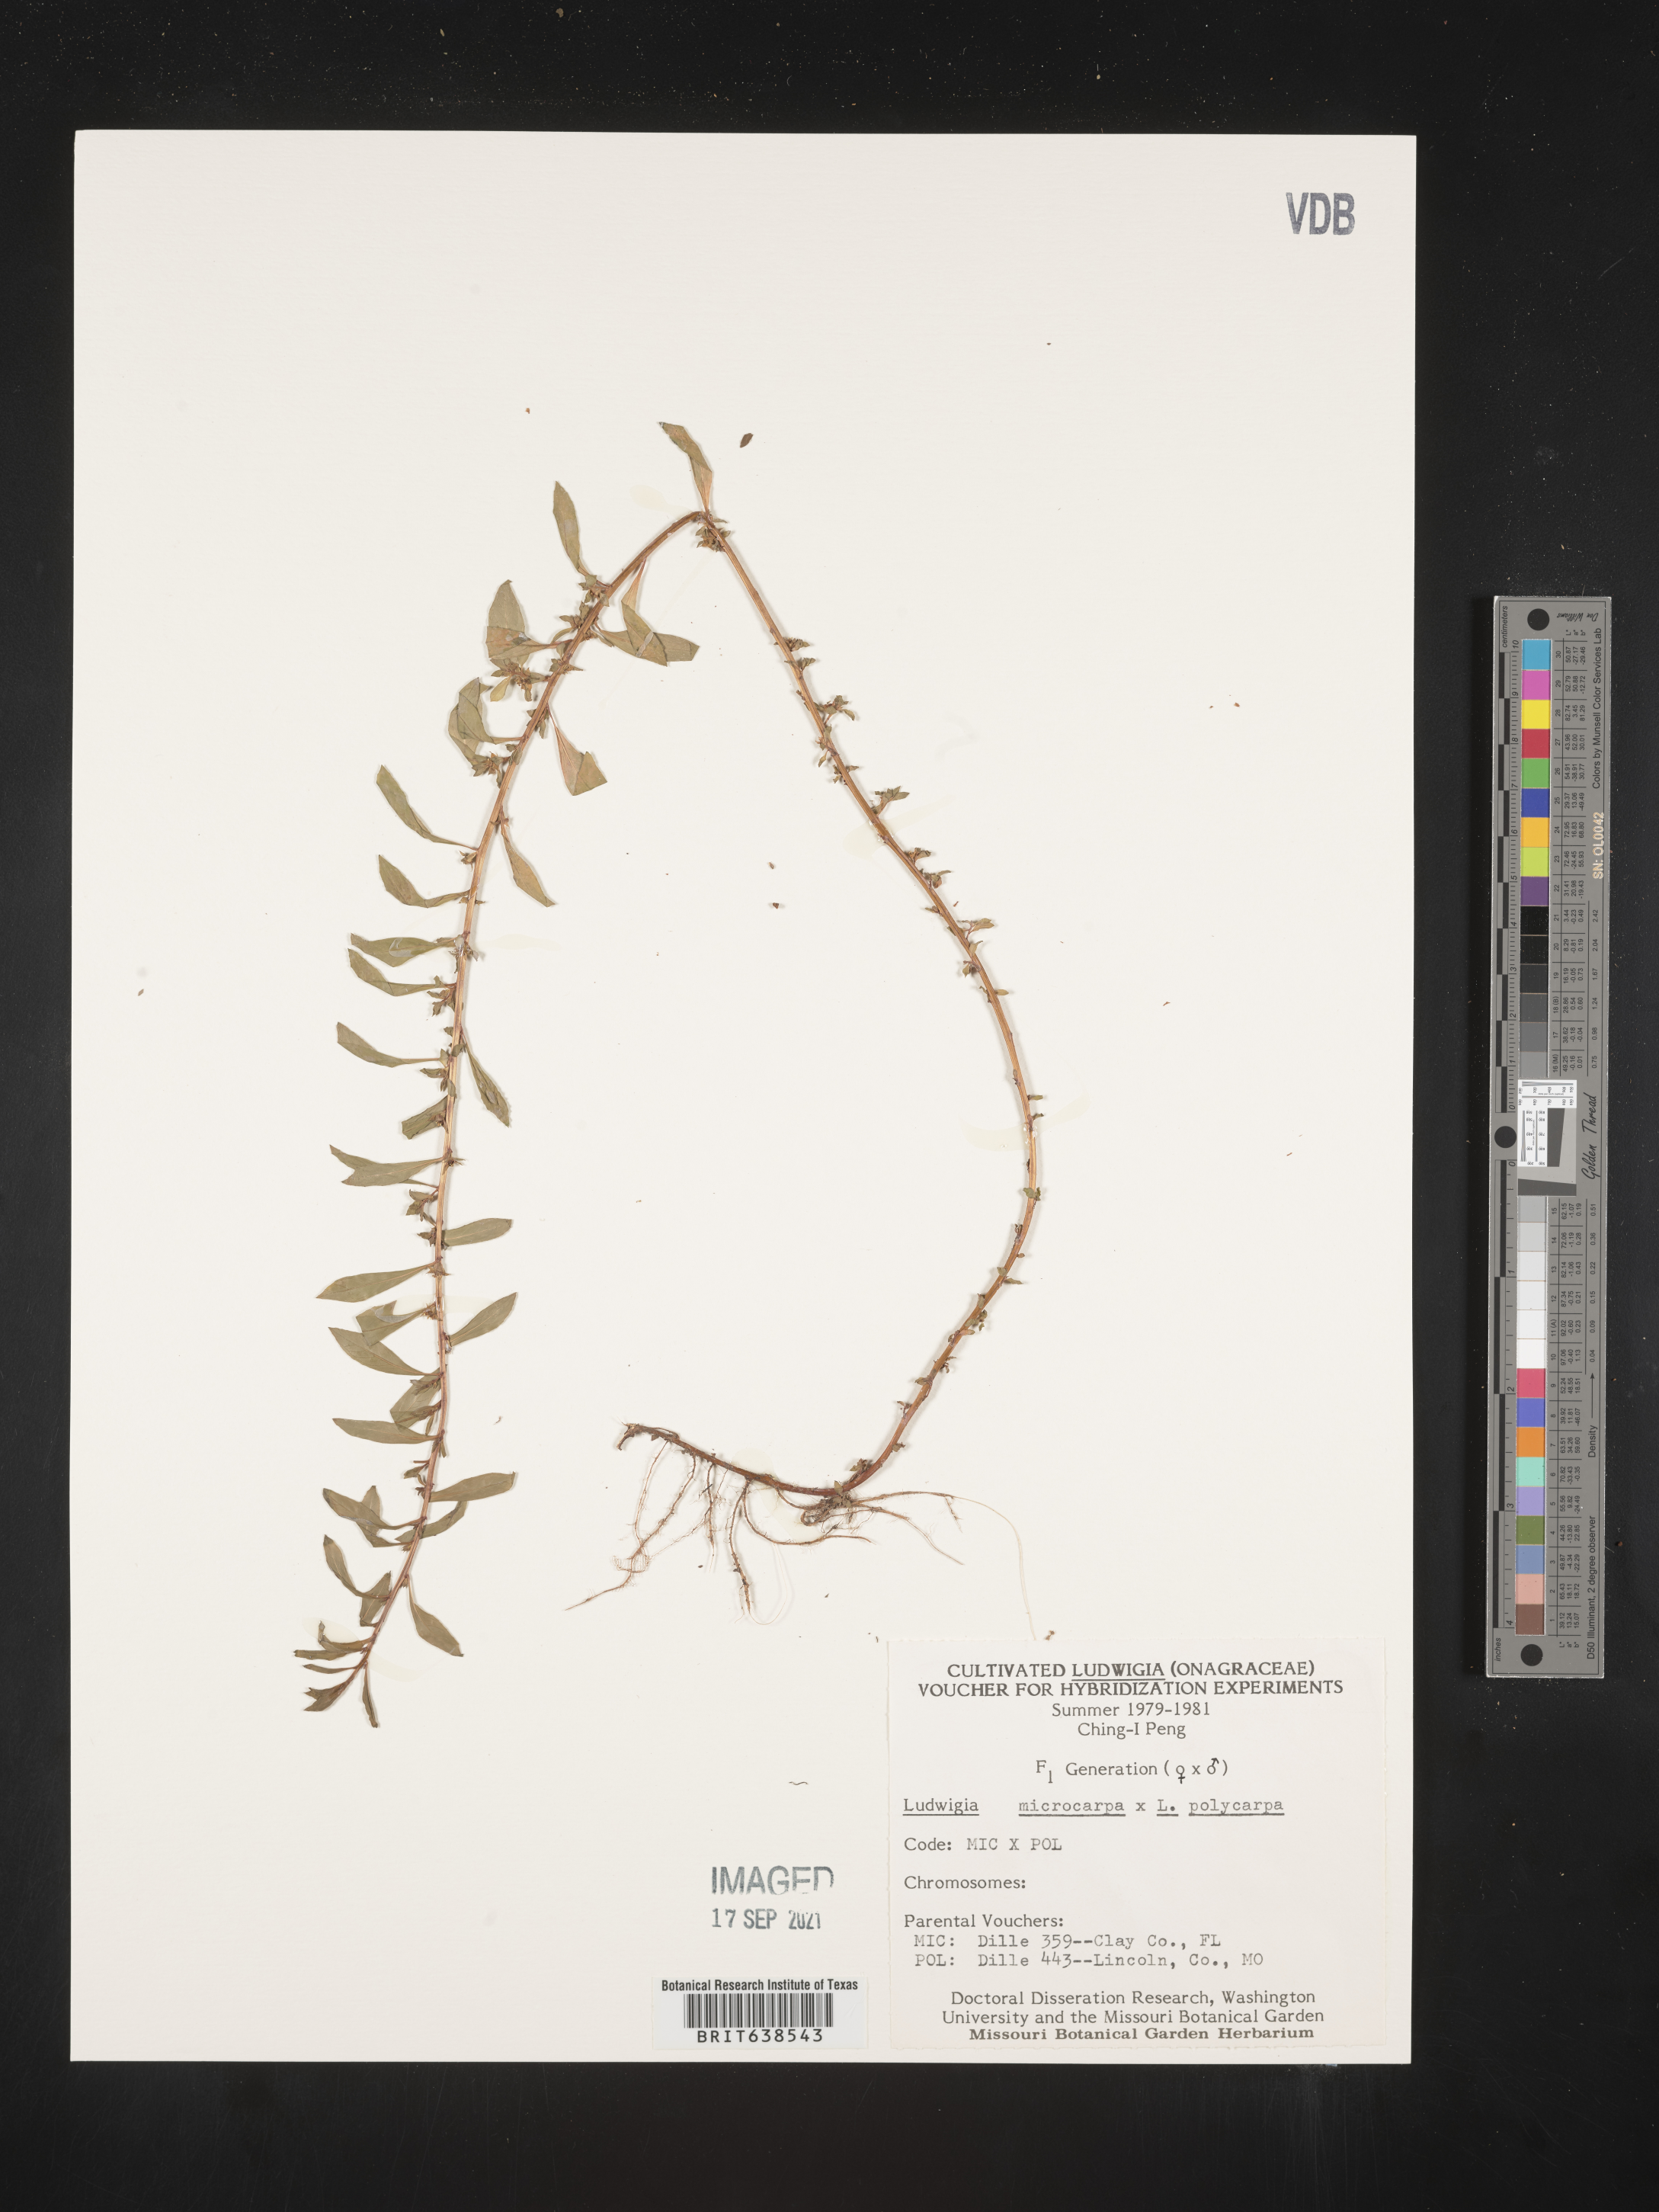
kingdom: Plantae
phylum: Tracheophyta
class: Magnoliopsida
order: Myrtales
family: Onagraceae
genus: Ludwigia
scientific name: Ludwigia
